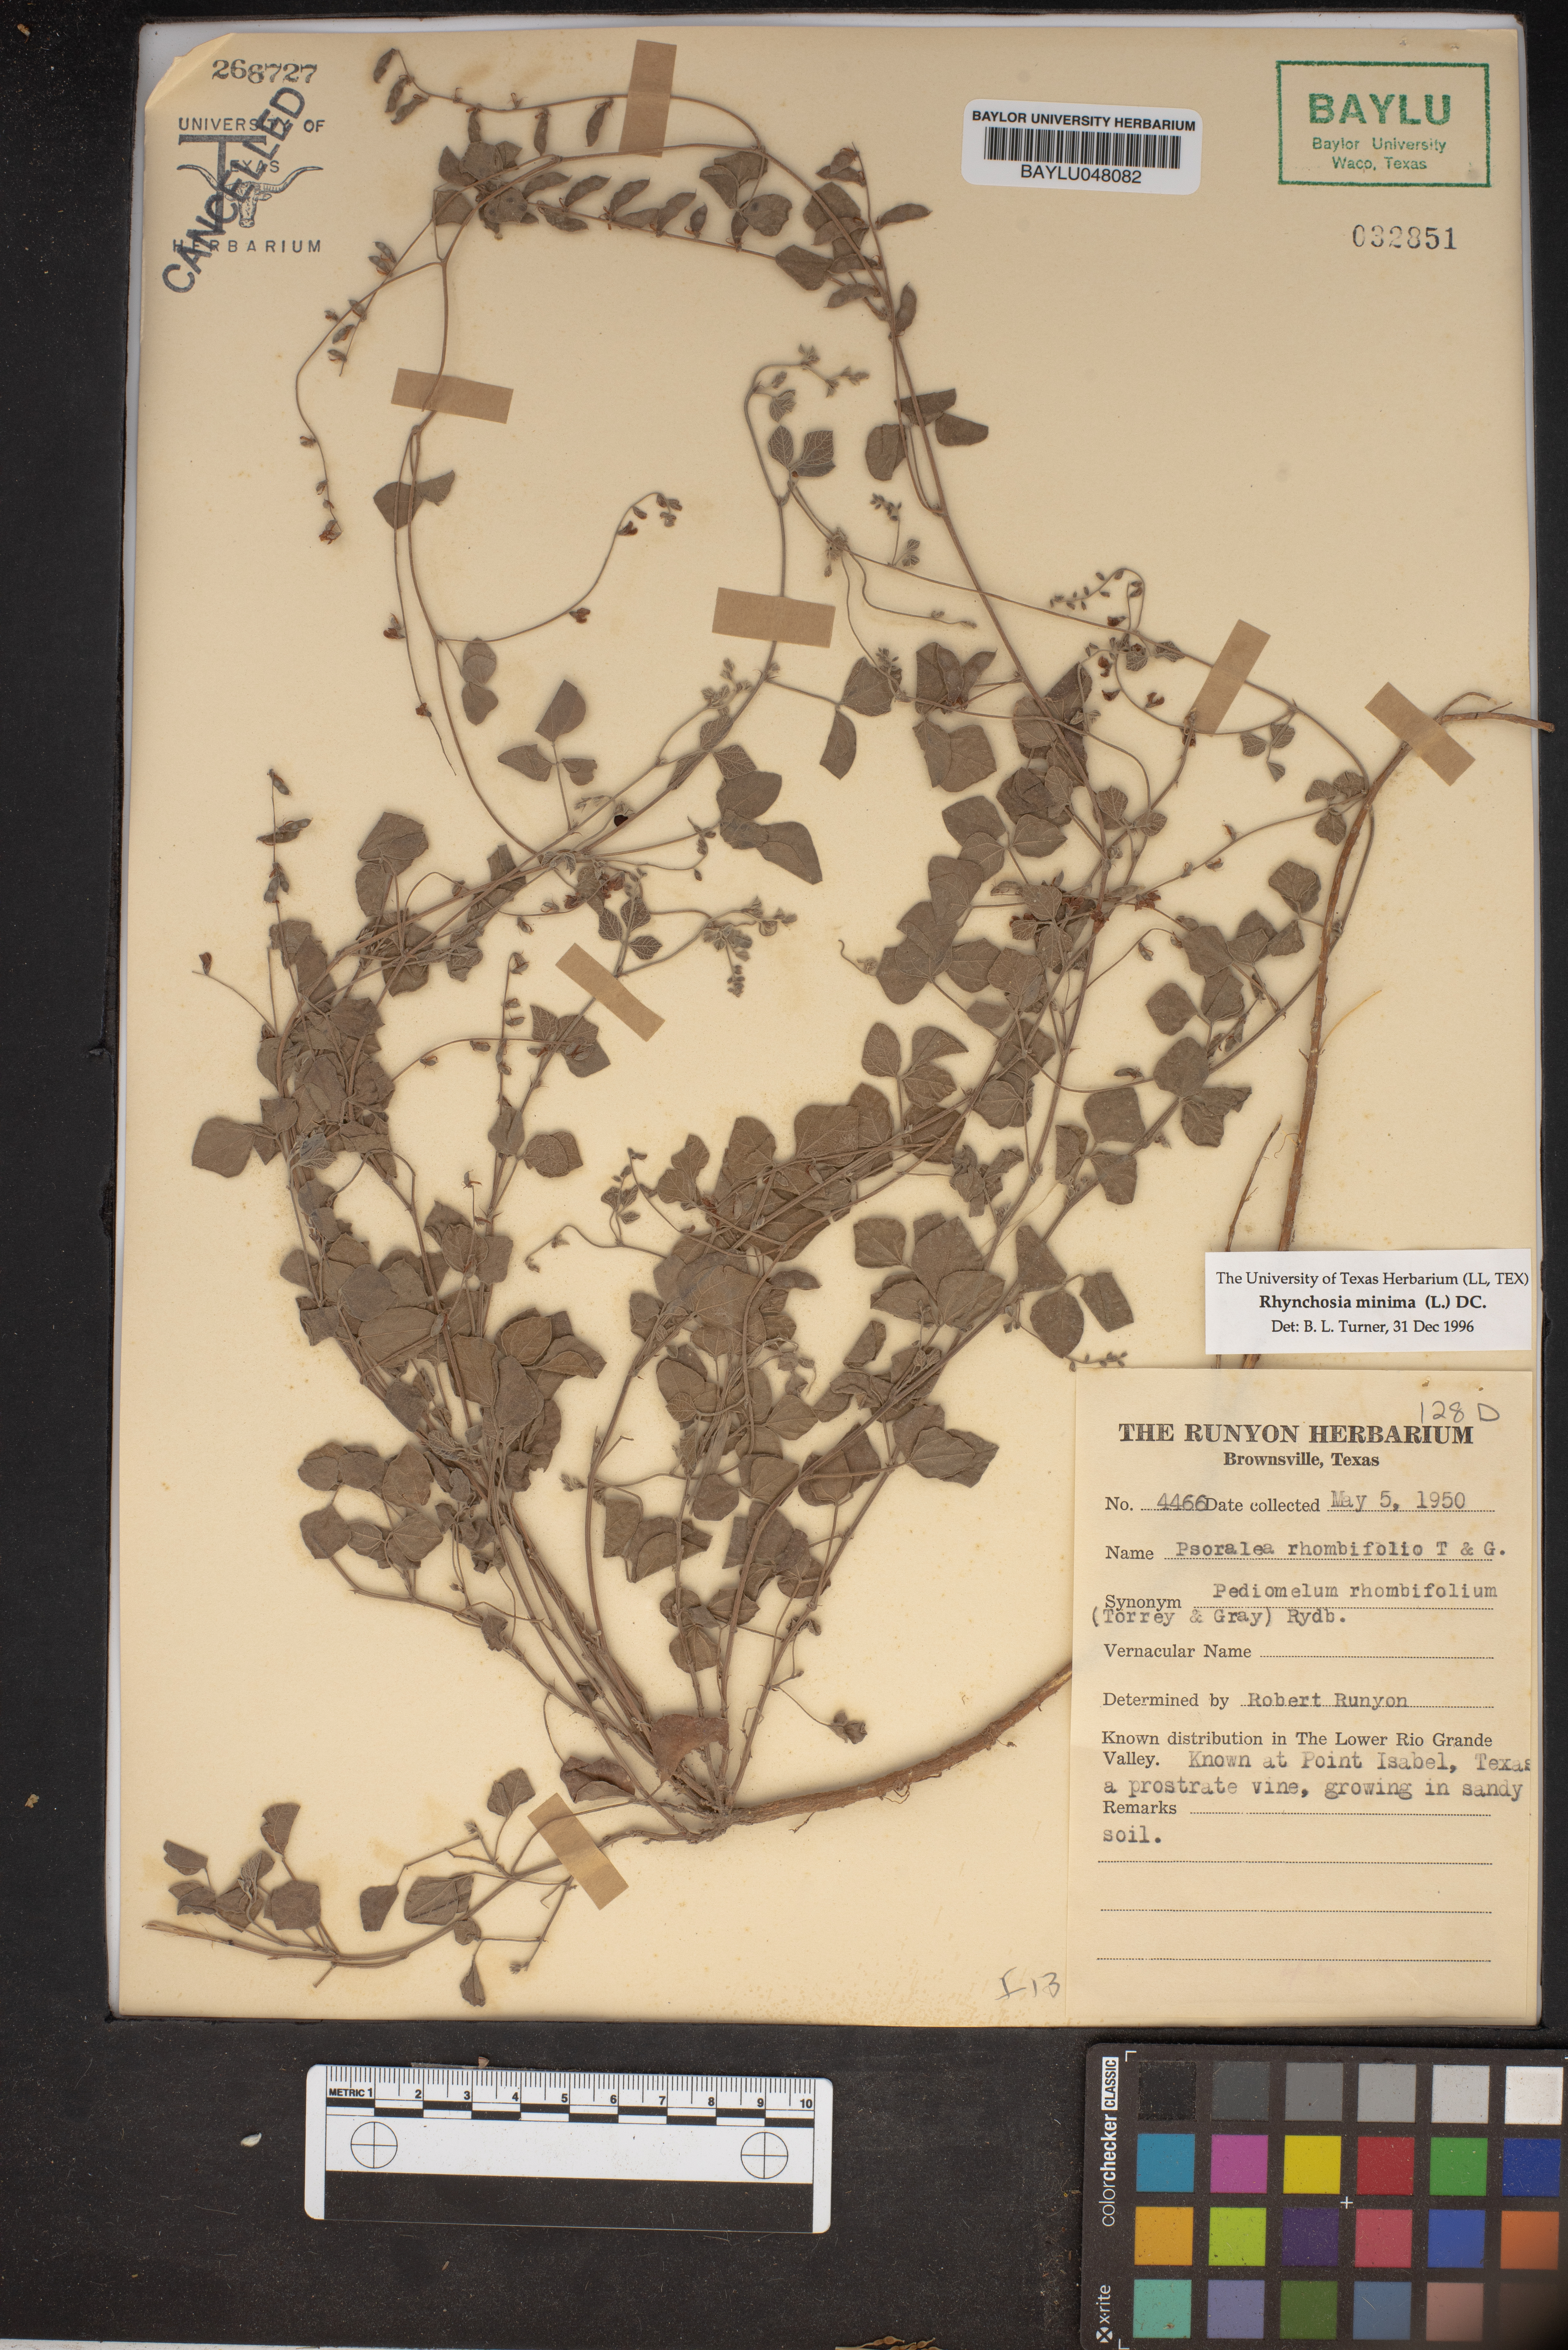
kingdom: Plantae
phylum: Tracheophyta
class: Magnoliopsida
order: Fabales
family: Fabaceae
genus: Rhynchosia
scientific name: Rhynchosia minima
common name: Least snoutbean
